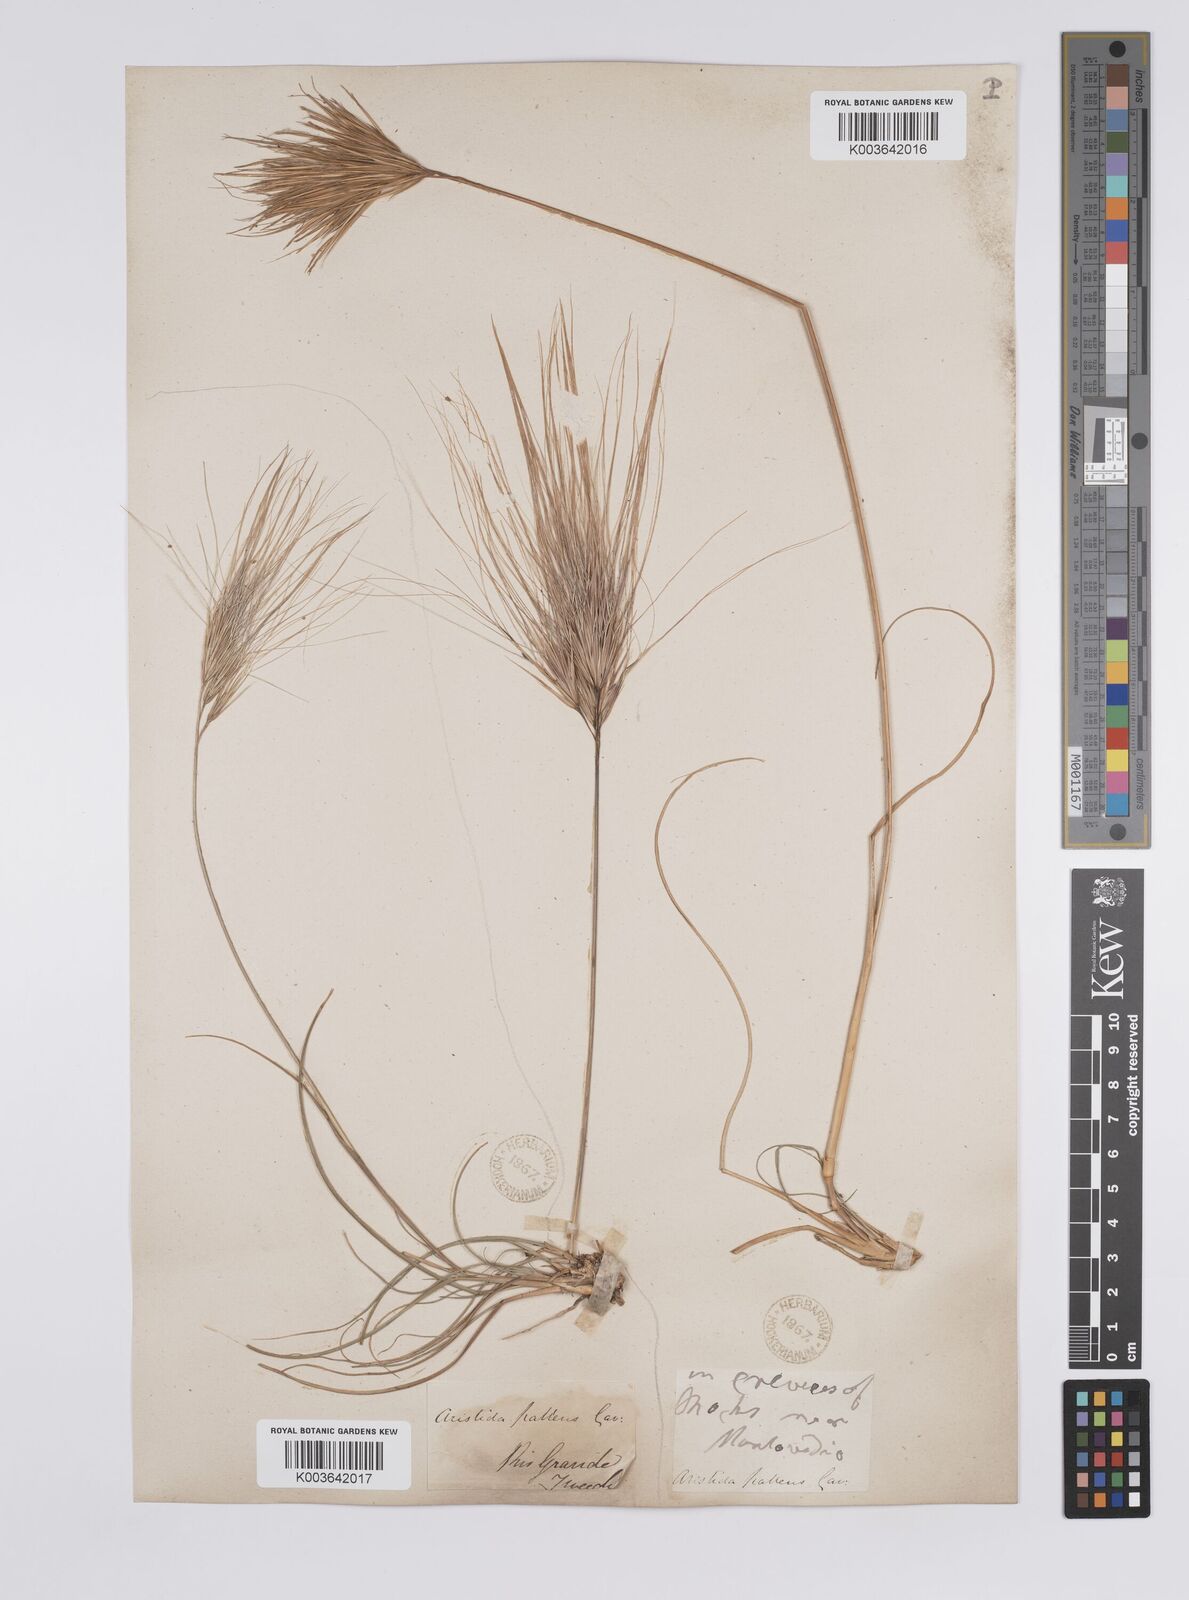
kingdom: Plantae
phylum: Tracheophyta
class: Liliopsida
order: Poales
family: Poaceae
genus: Aristida
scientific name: Aristida murina
